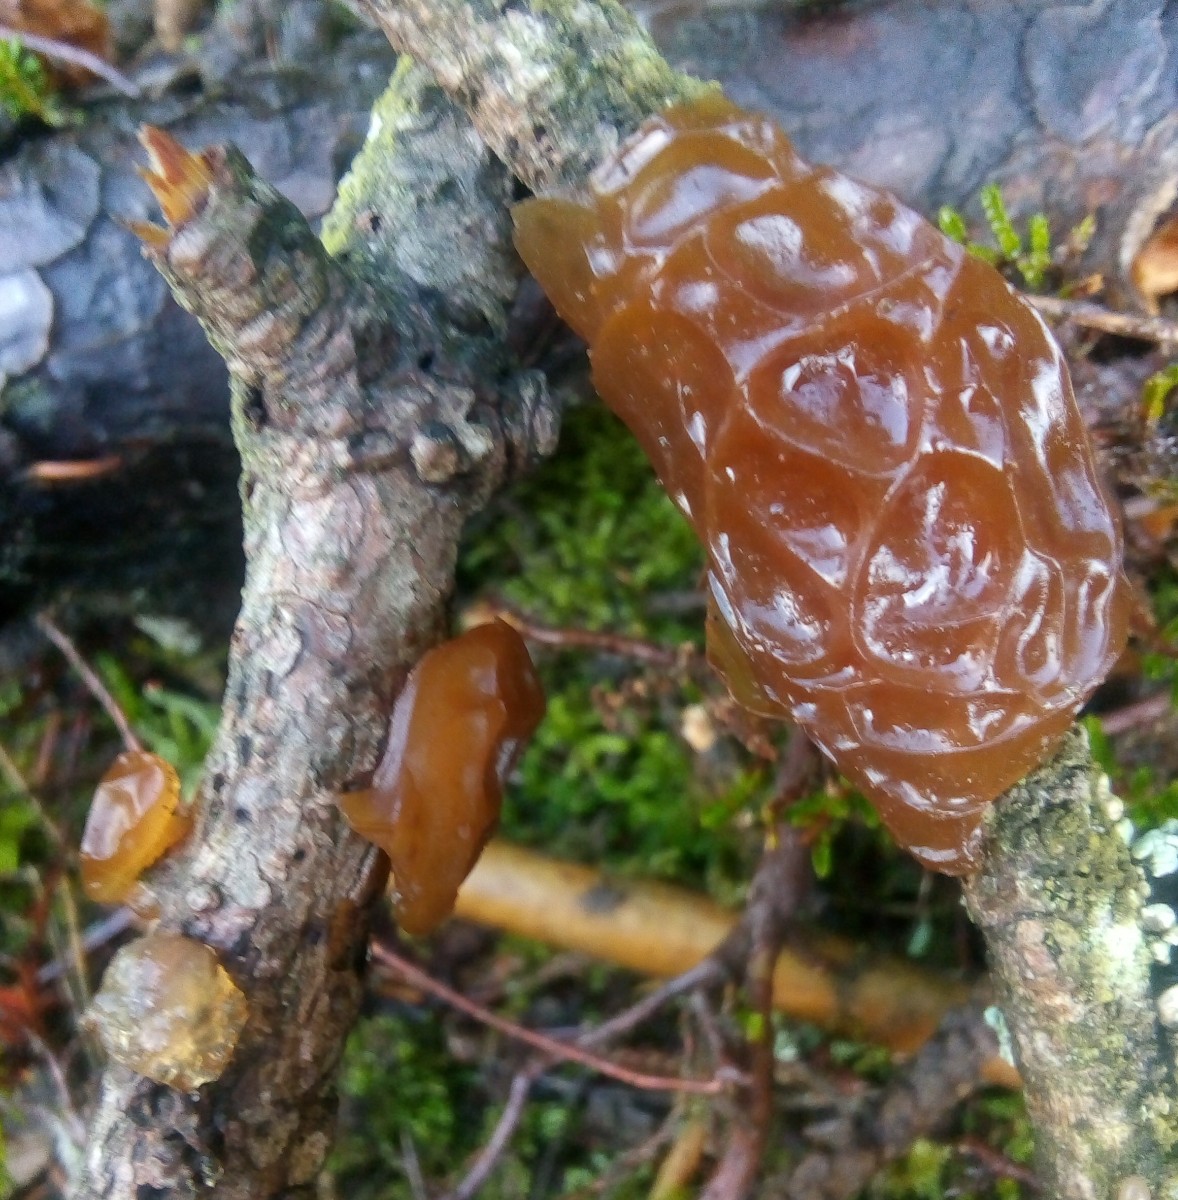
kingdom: Fungi
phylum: Basidiomycota
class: Agaricomycetes
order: Auriculariales
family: Auriculariaceae
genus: Exidia
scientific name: Exidia saccharina
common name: kandis-bævretop
